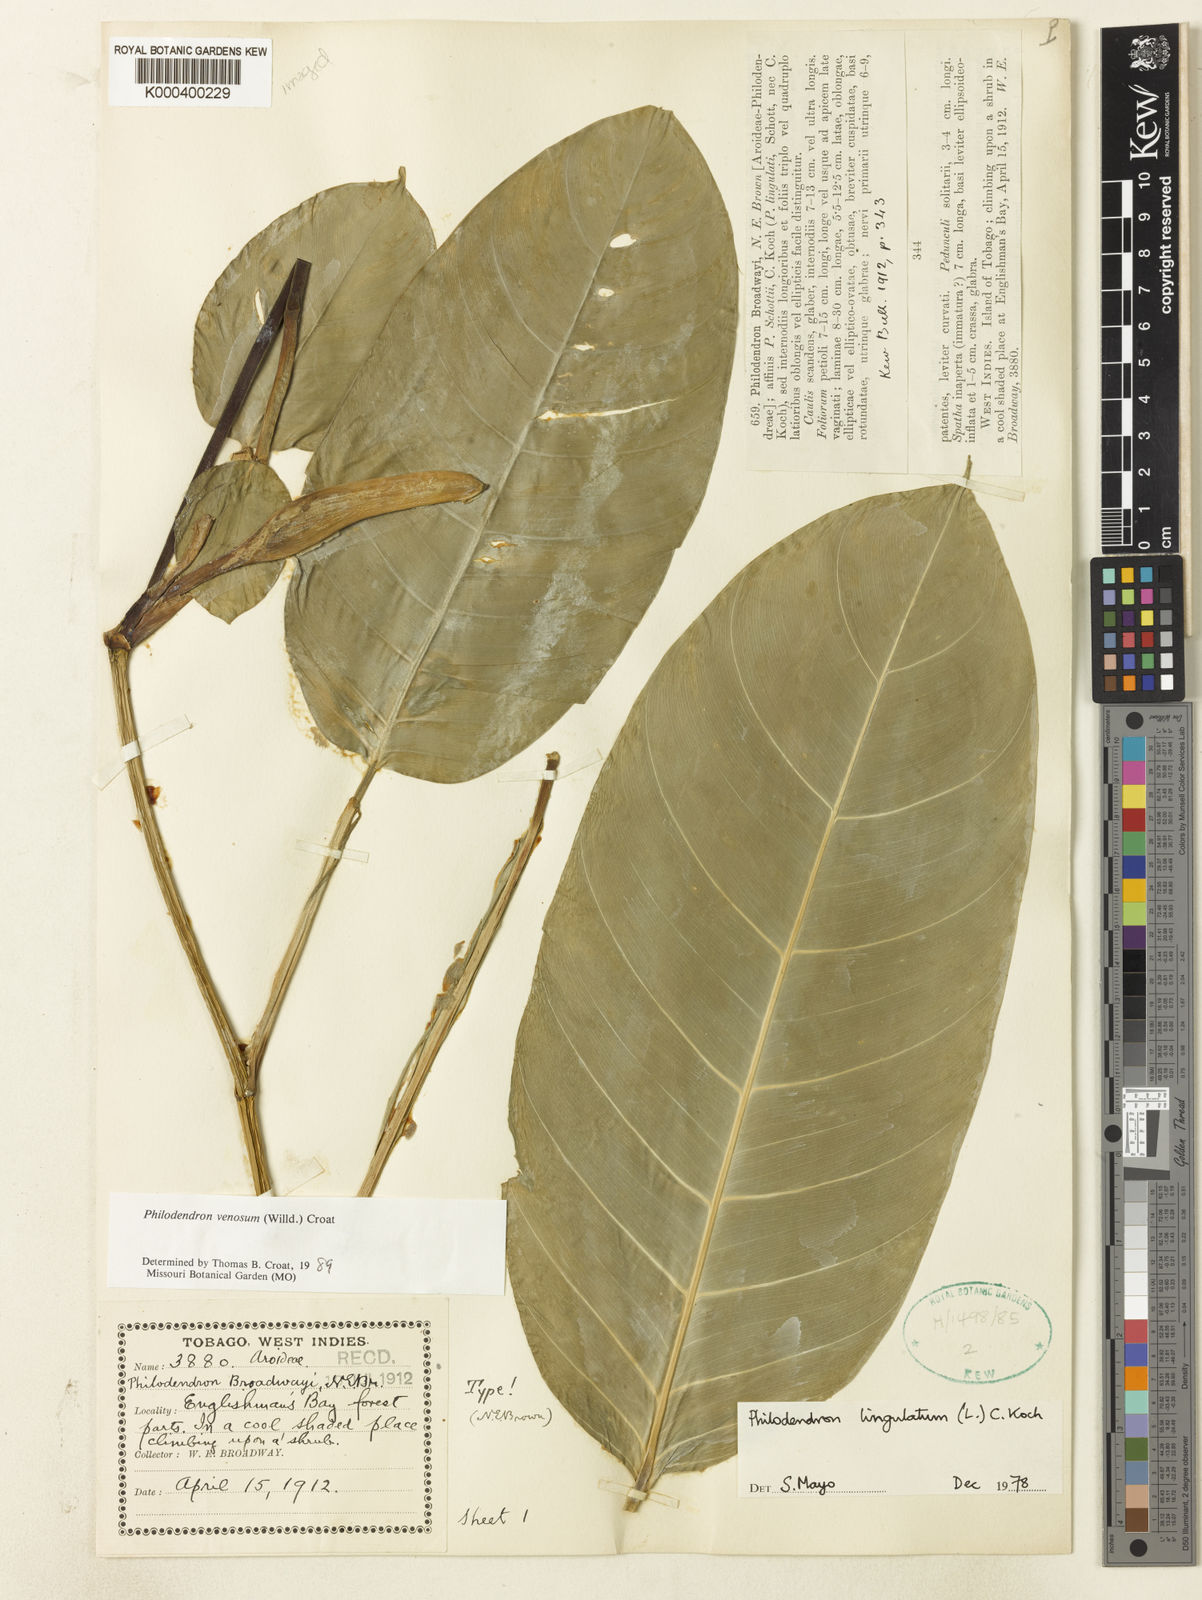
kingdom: Plantae
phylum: Tracheophyta
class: Liliopsida
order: Alismatales
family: Araceae
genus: Philodendron
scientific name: Philodendron venosum
